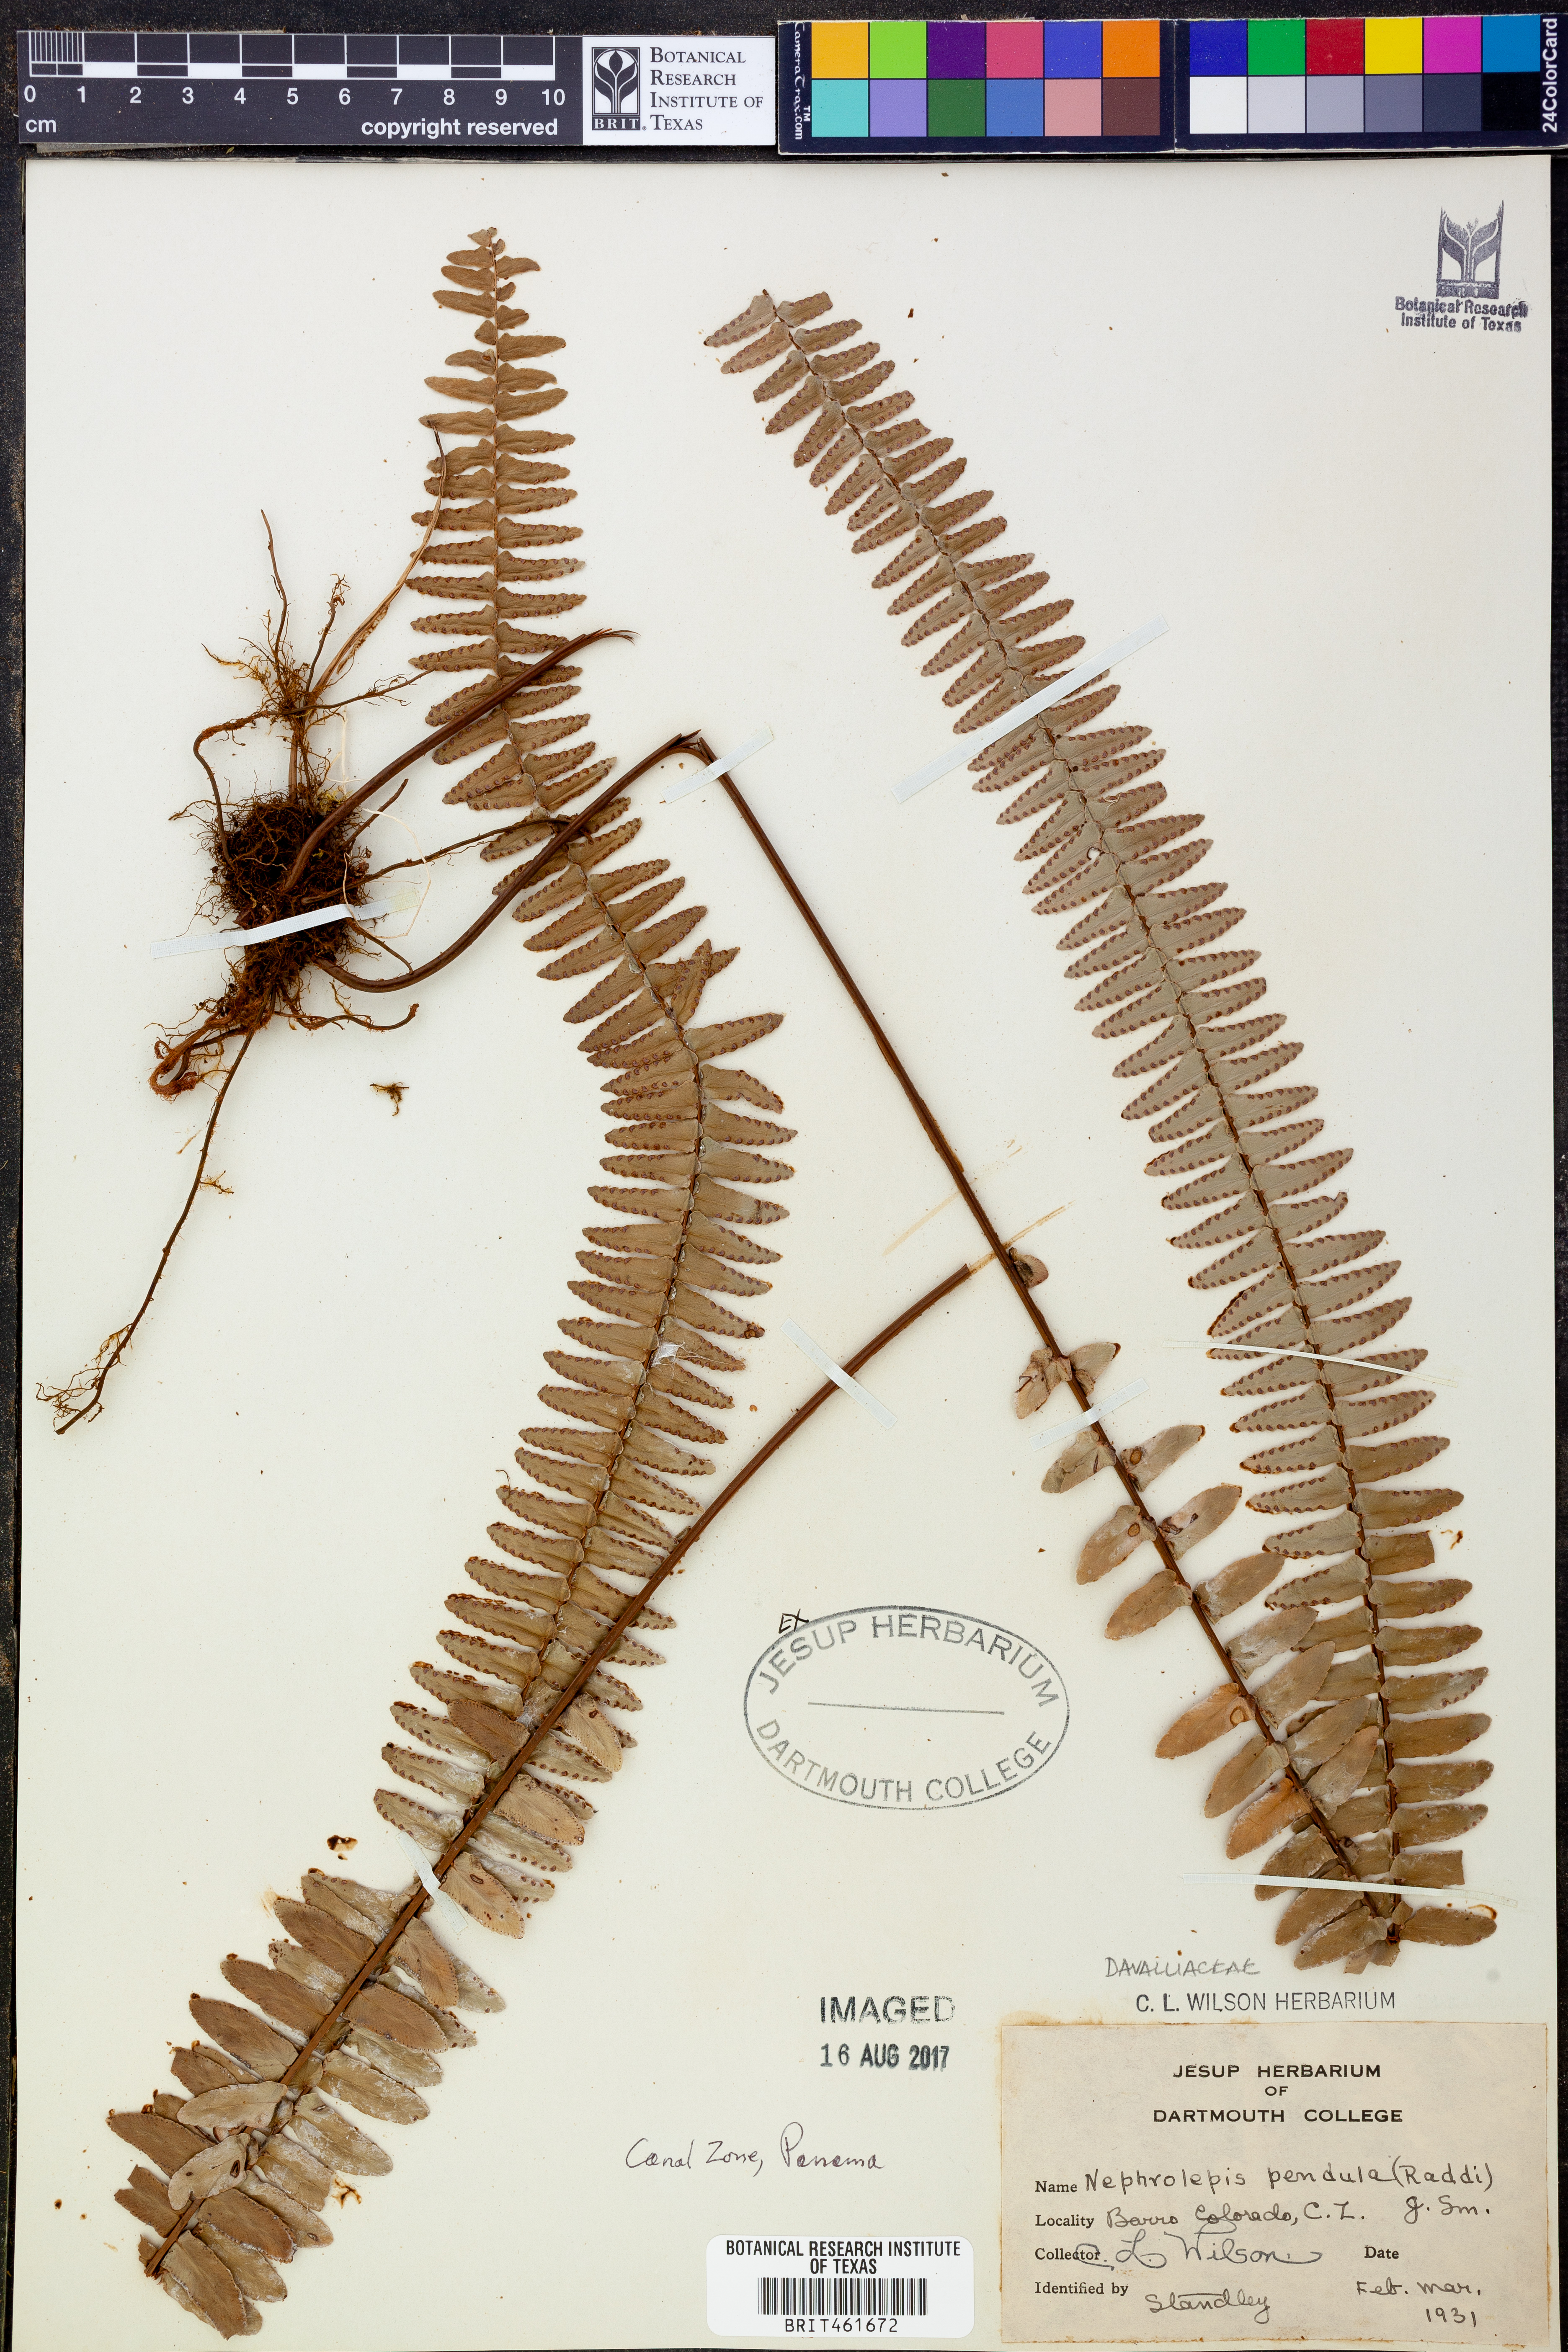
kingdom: Plantae
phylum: Tracheophyta
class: Polypodiopsida
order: Polypodiales
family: Nephrolepidaceae
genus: Nephrolepis
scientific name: Nephrolepis pendula
